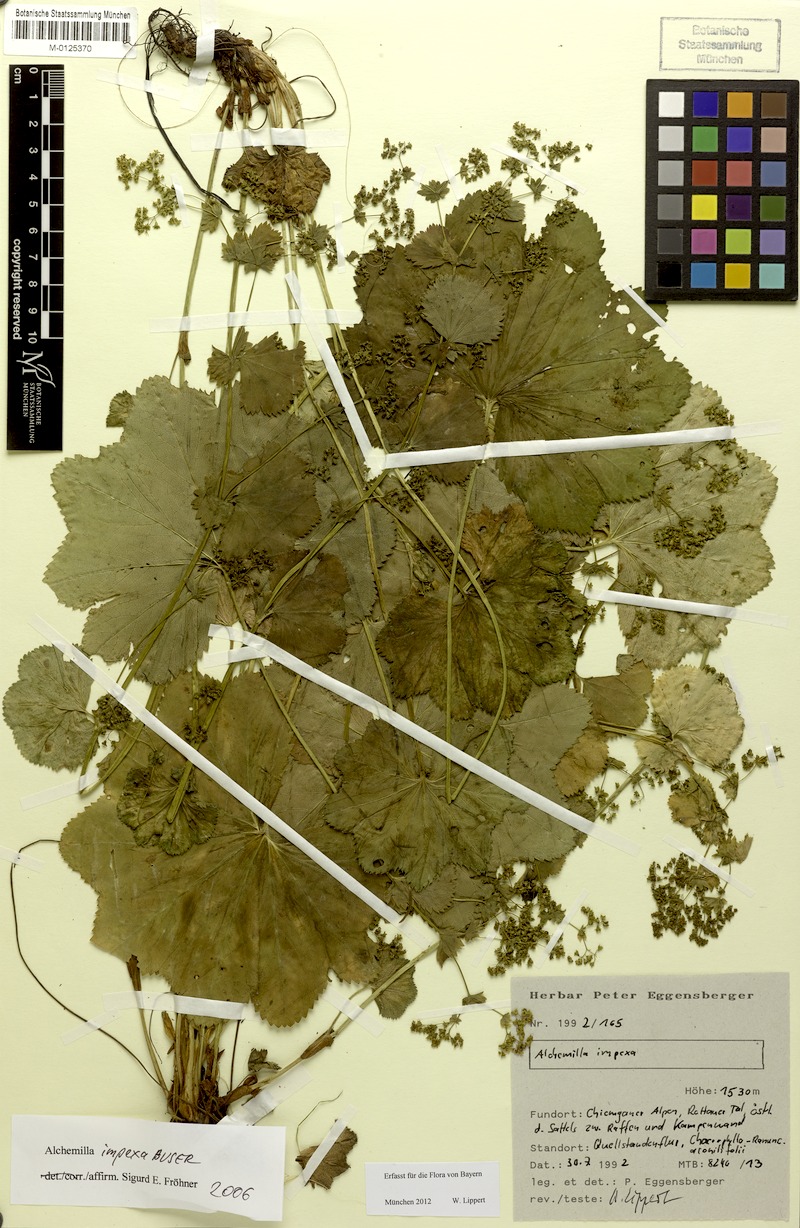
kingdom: Plantae
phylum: Tracheophyta
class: Magnoliopsida
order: Rosales
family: Rosaceae
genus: Alchemilla
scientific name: Alchemilla impexa
